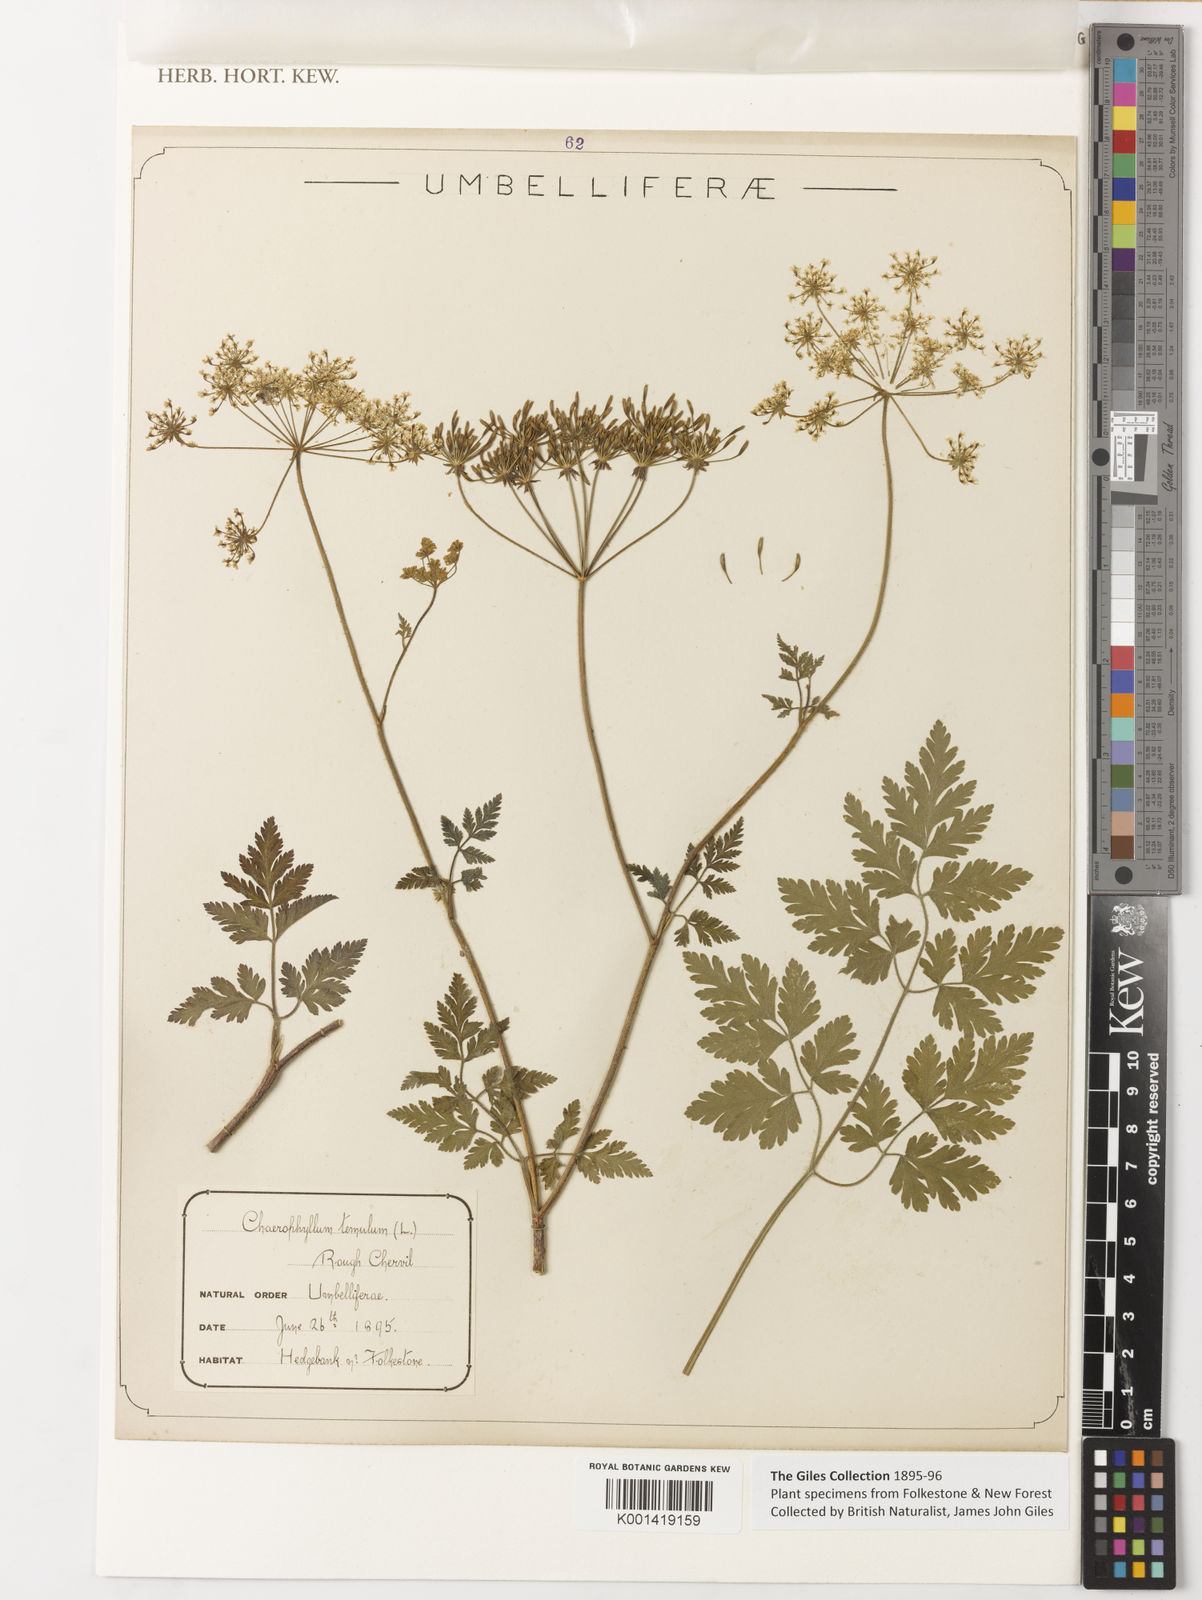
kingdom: Plantae
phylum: Tracheophyta
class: Magnoliopsida
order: Apiales
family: Apiaceae
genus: Chaerophyllum
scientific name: Chaerophyllum temulum
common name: Rough chervil
